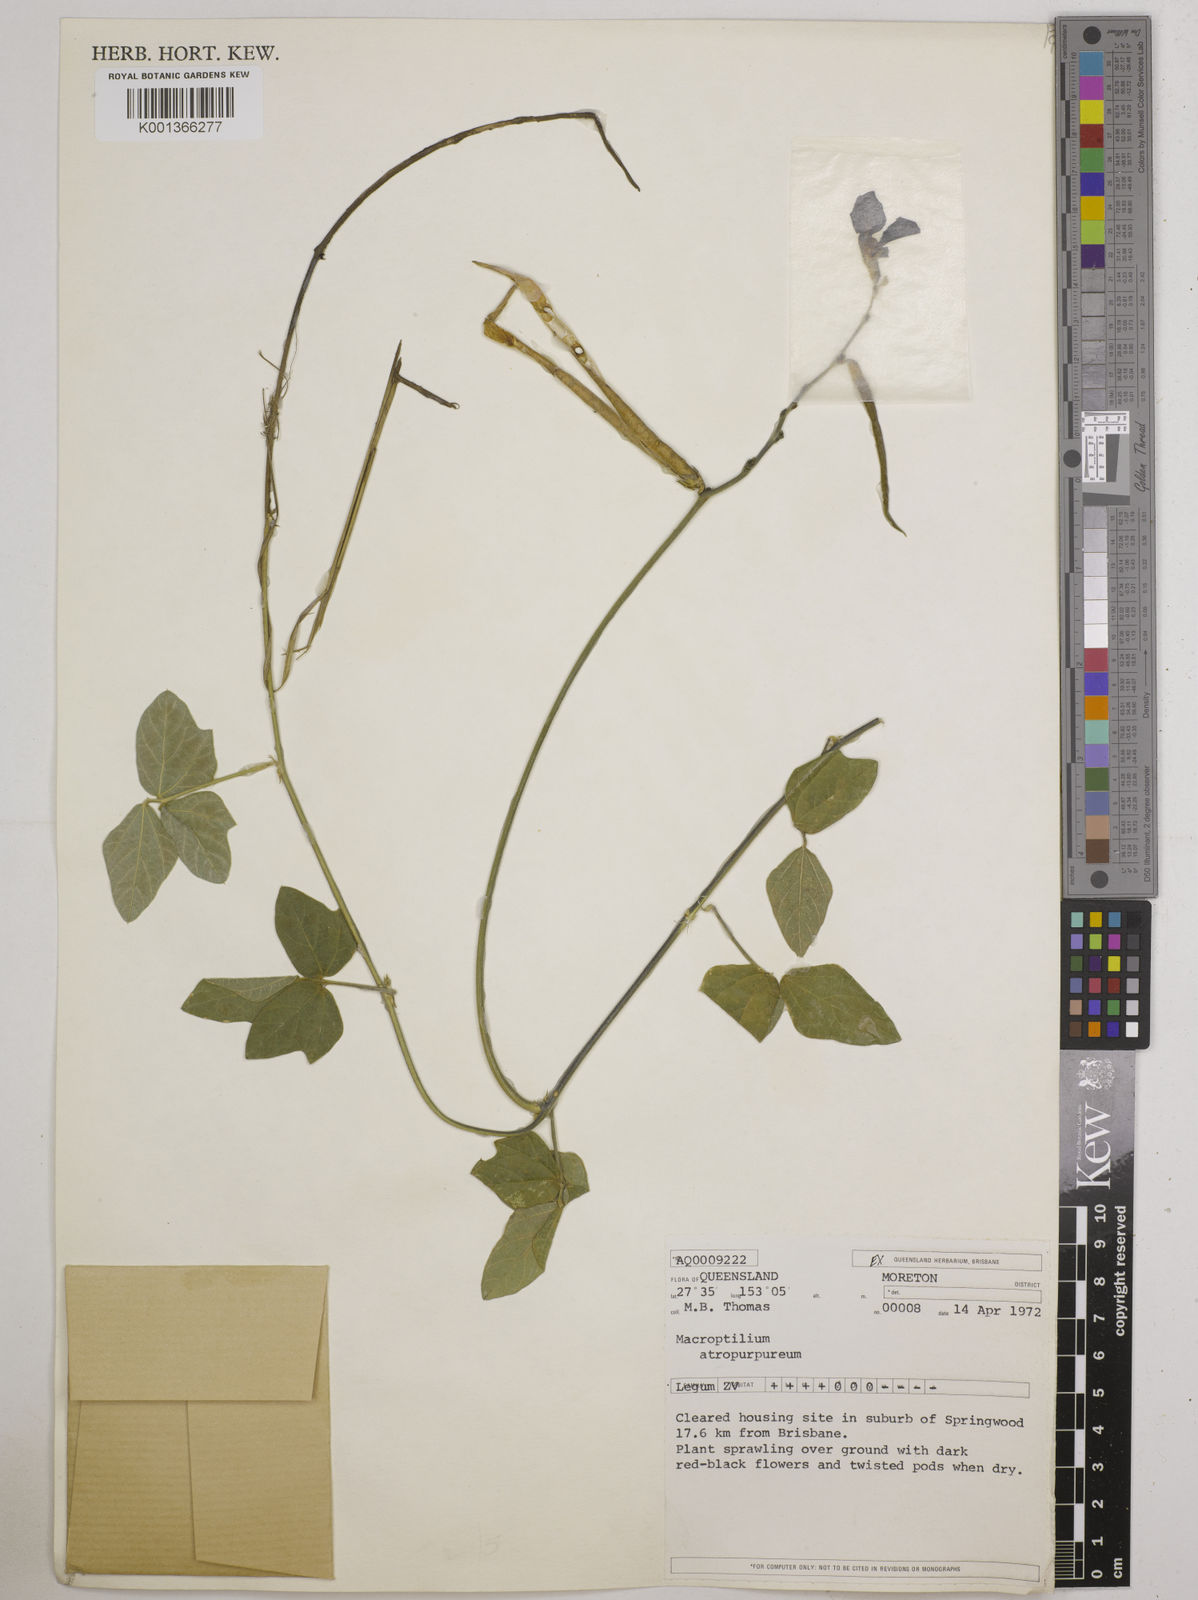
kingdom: Plantae
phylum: Tracheophyta
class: Magnoliopsida
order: Fabales
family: Fabaceae
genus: Macroptilium
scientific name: Macroptilium atropurpureum
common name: Purple bushbean
